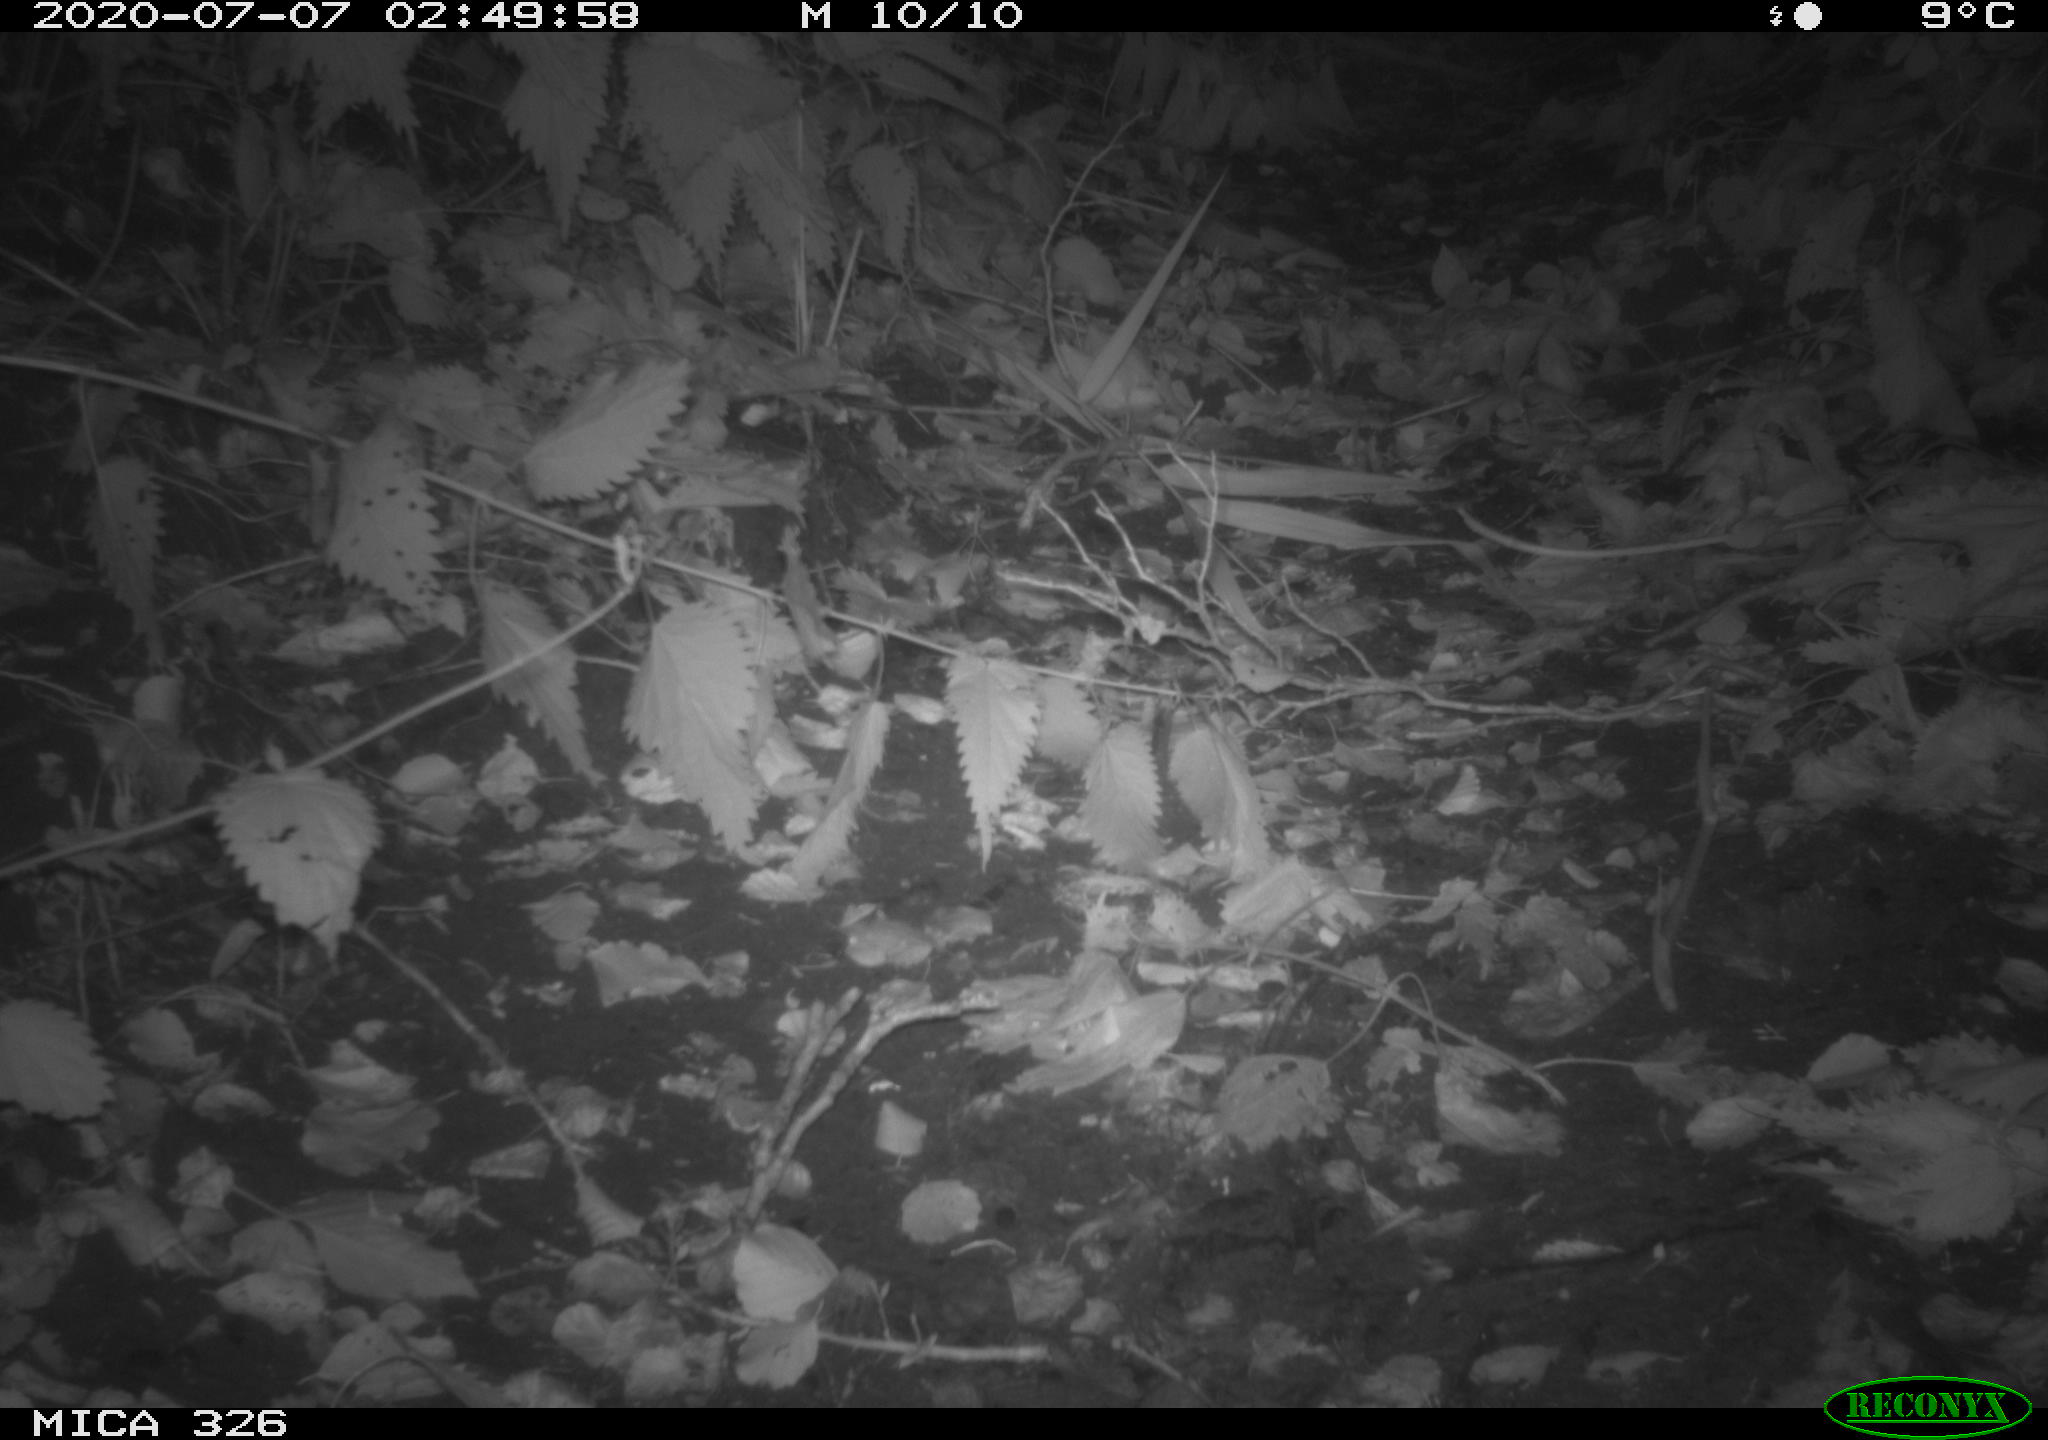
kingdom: Animalia
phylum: Chordata
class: Mammalia
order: Rodentia
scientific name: Rodentia
